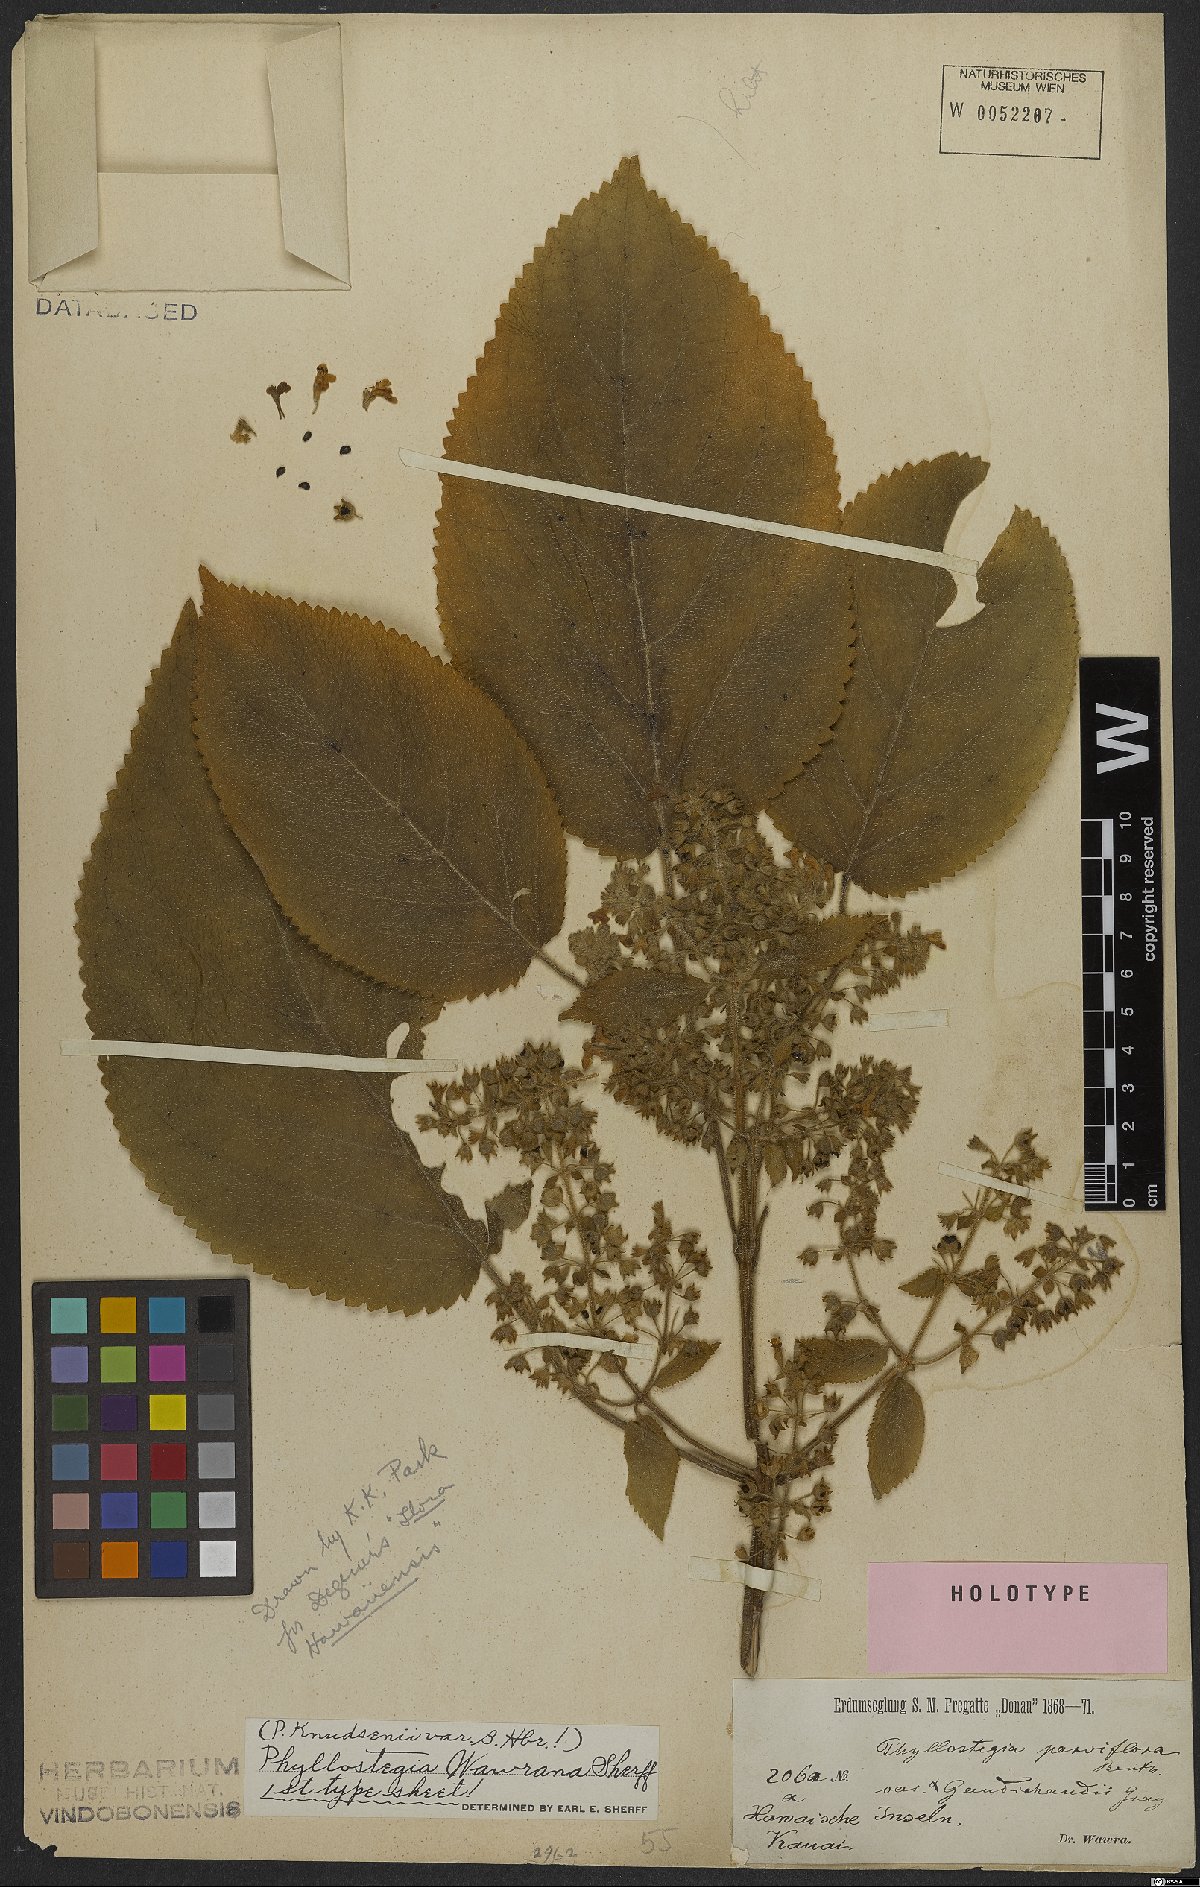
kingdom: Plantae
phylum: Tracheophyta
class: Magnoliopsida
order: Lamiales
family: Lamiaceae
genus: Phyllostegia
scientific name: Phyllostegia wawrana
